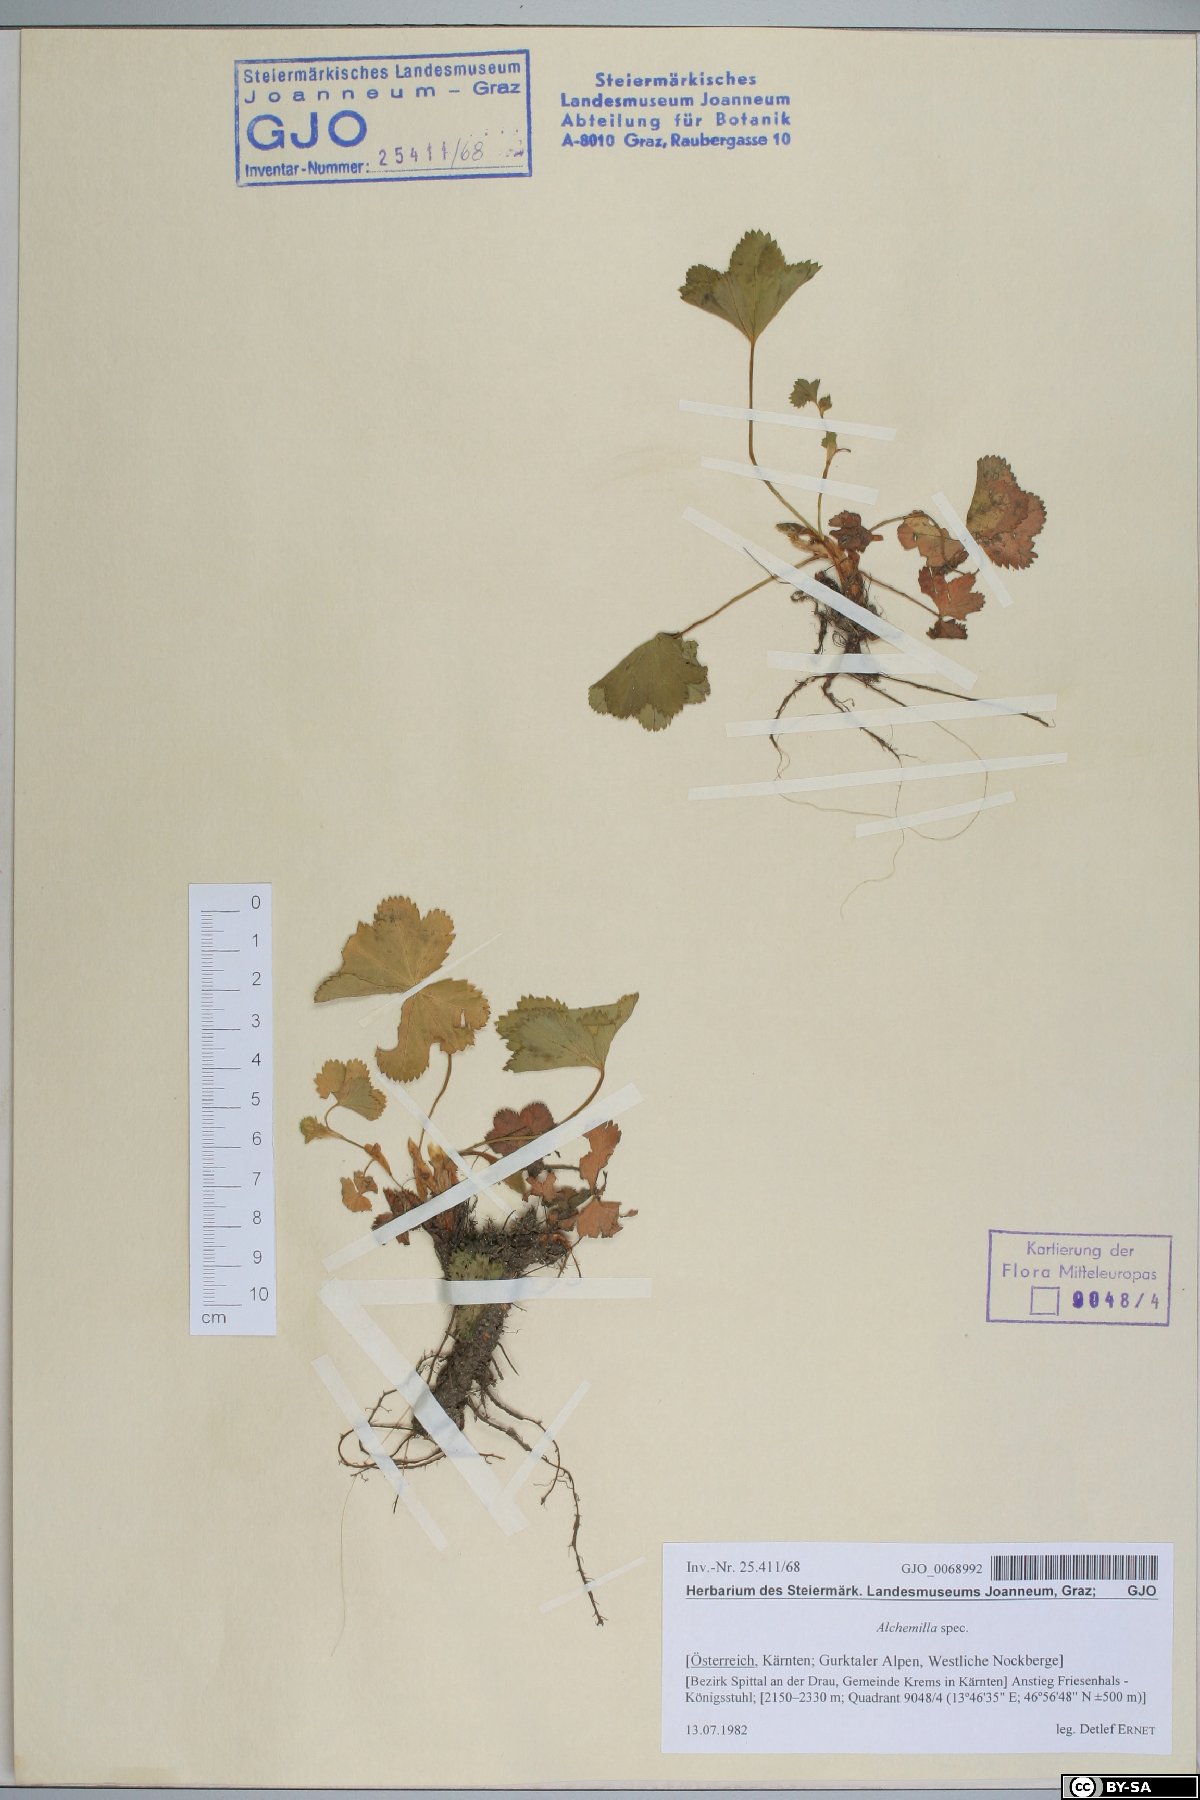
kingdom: Plantae
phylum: Tracheophyta
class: Magnoliopsida
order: Rosales
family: Rosaceae
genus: Alchemilla
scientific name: Alchemilla
